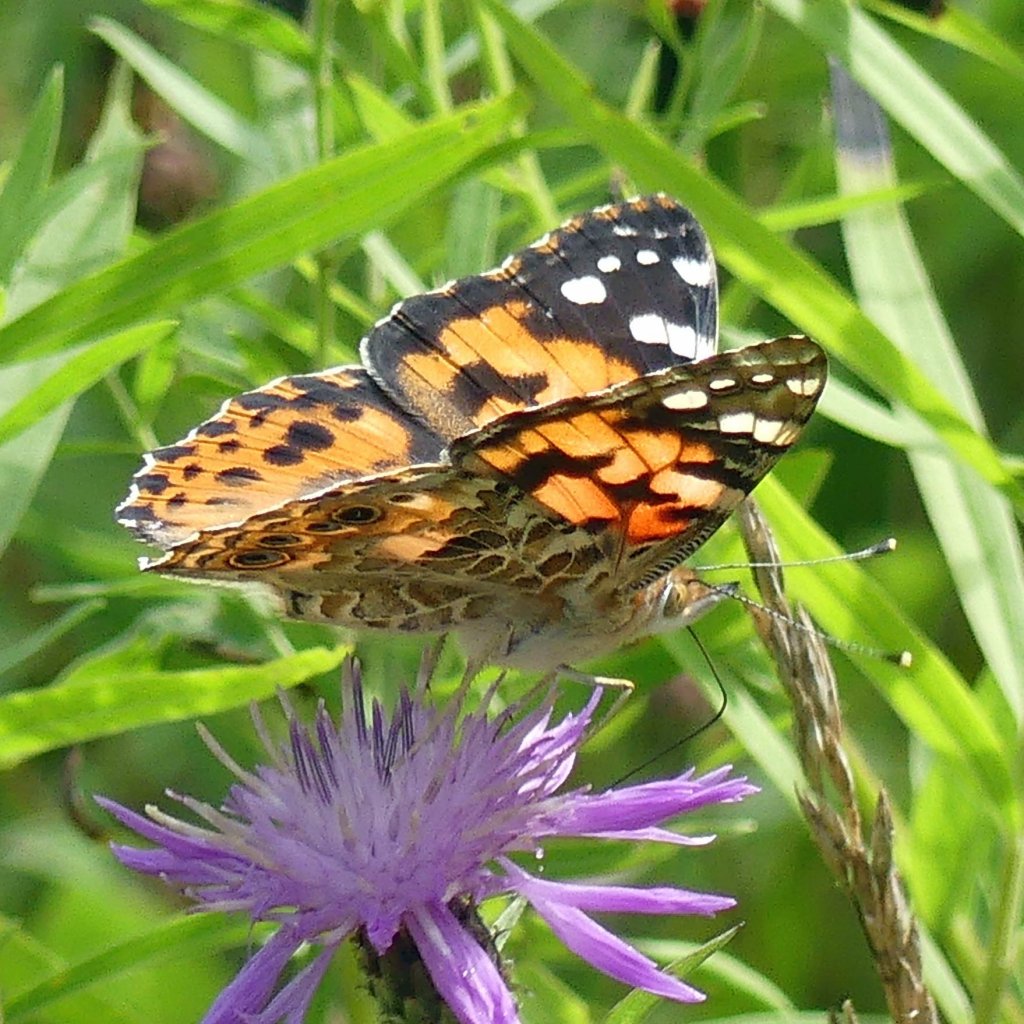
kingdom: Animalia
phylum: Arthropoda
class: Insecta
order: Lepidoptera
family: Nymphalidae
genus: Vanessa
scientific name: Vanessa cardui
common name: Painted Lady
